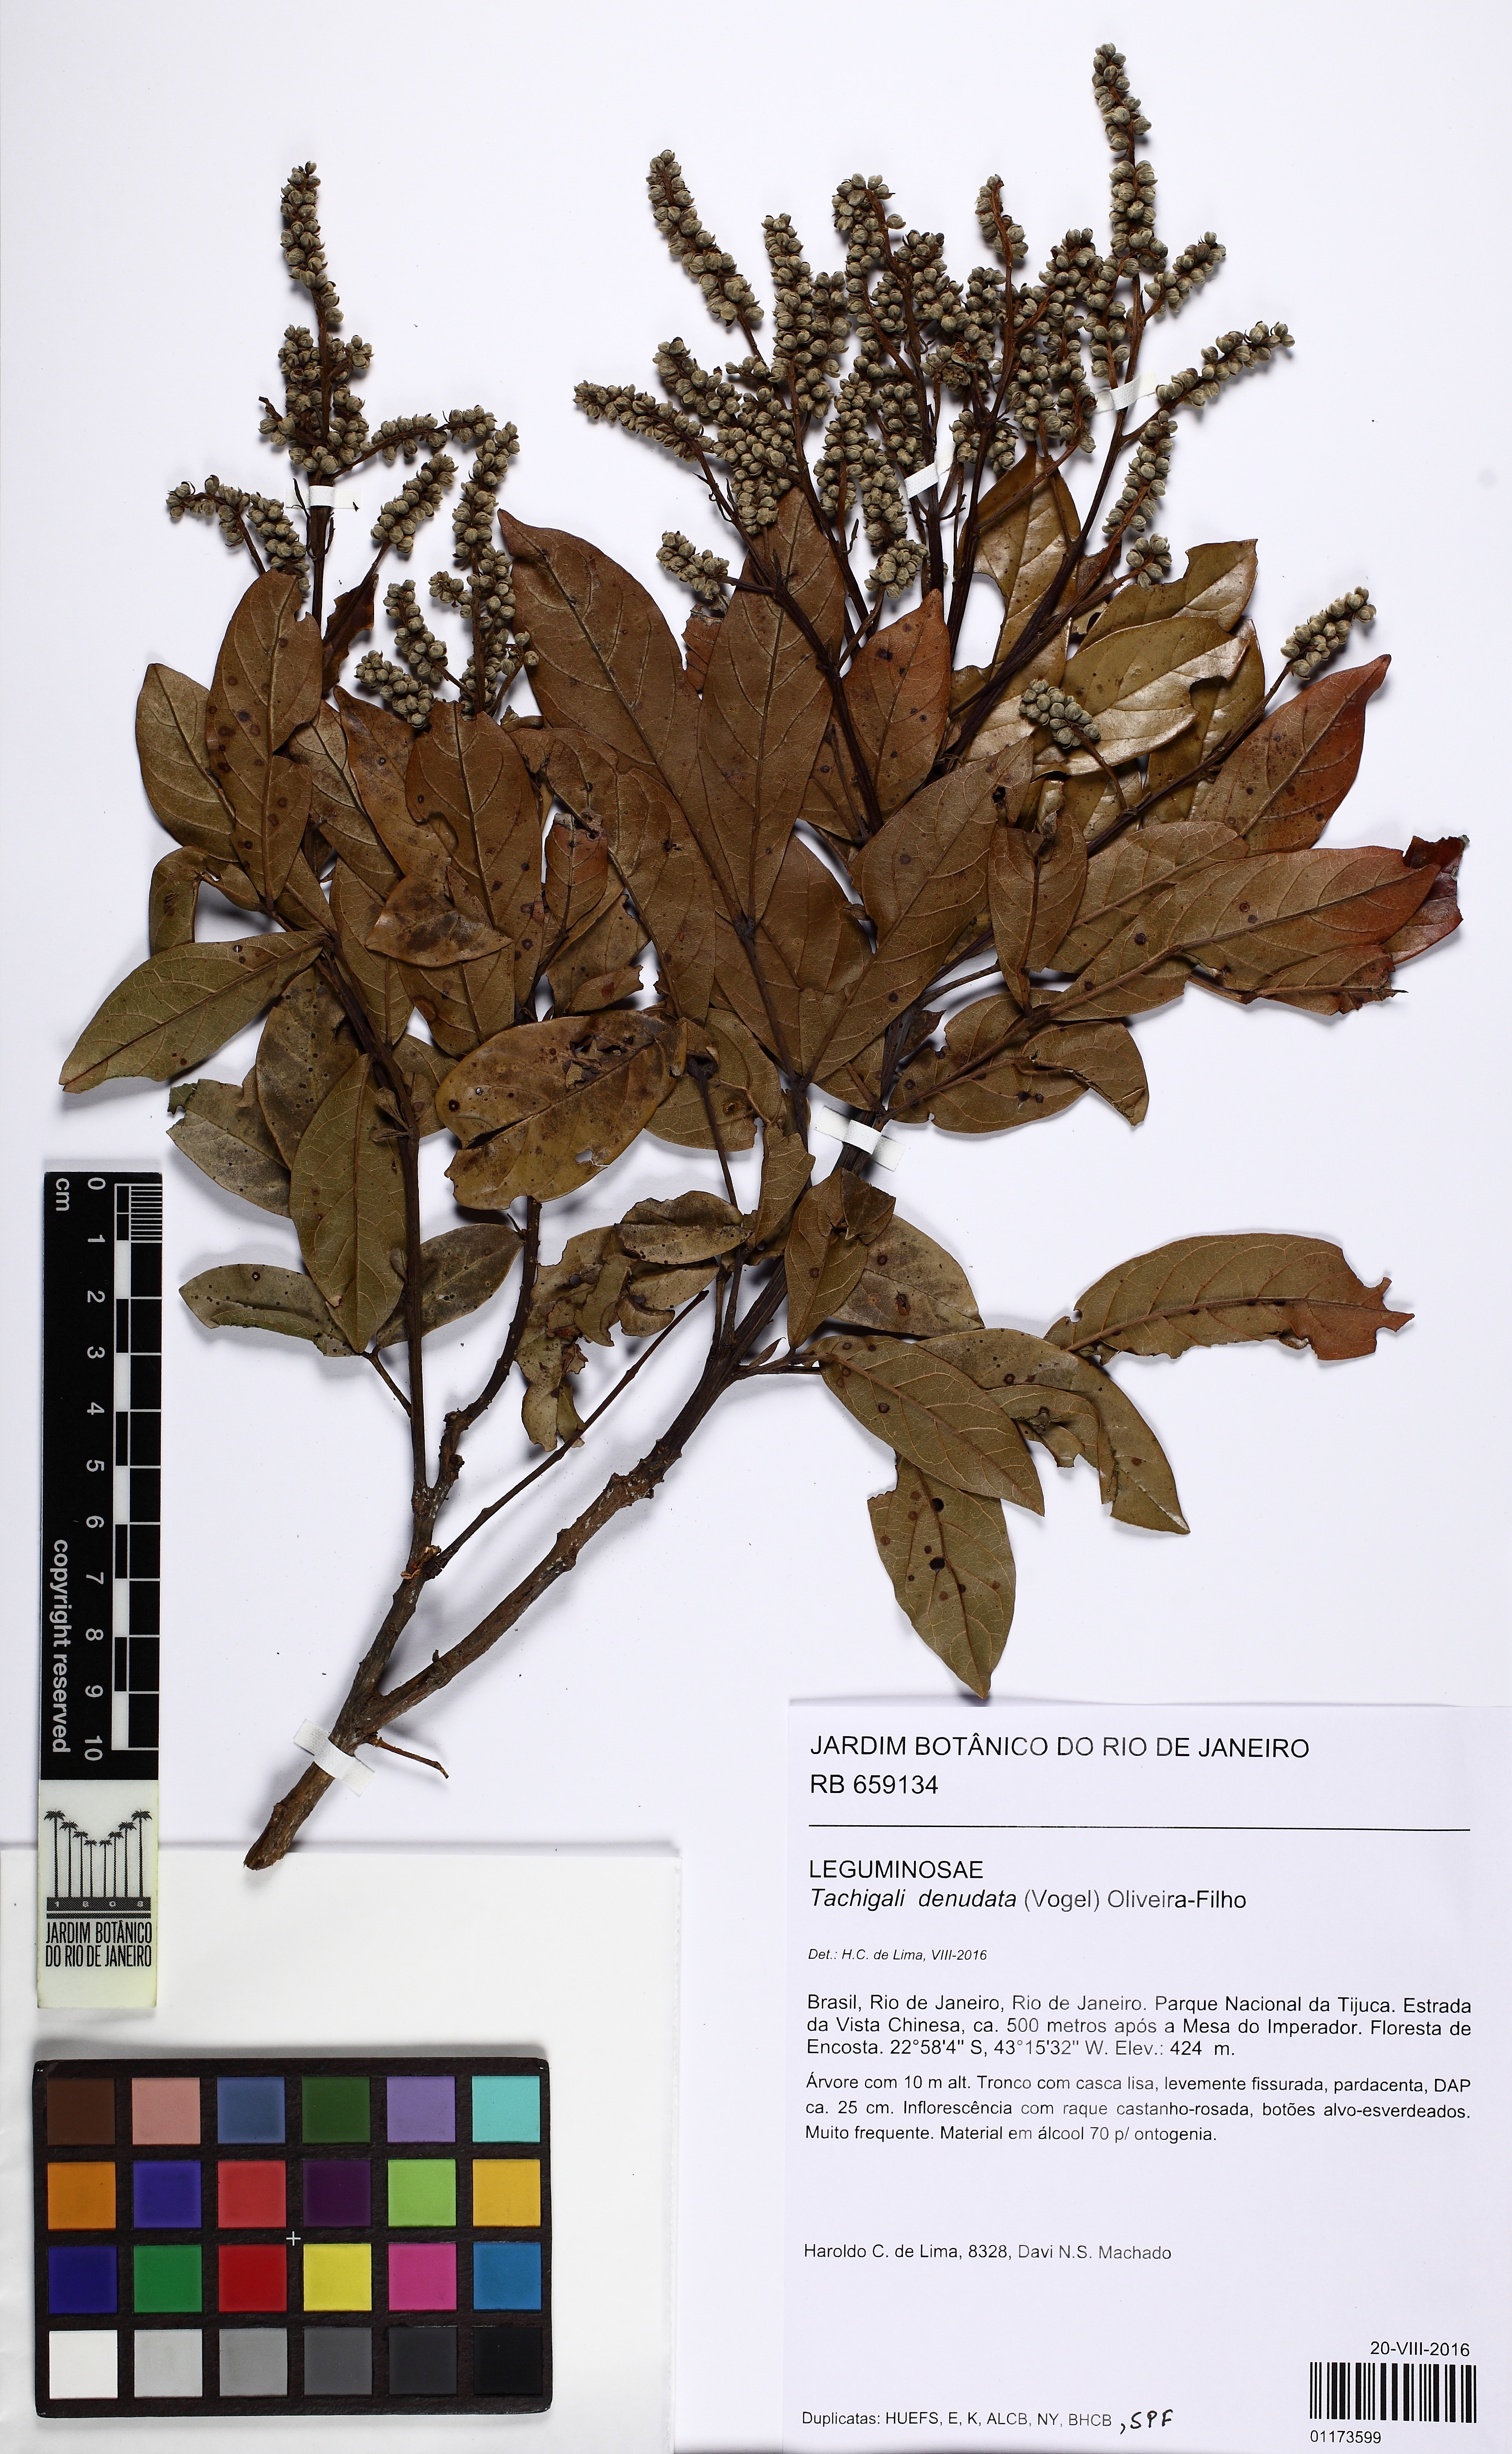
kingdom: Plantae
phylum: Tracheophyta
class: Magnoliopsida
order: Fabales
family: Fabaceae
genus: Tachigali
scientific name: Tachigali denudata
